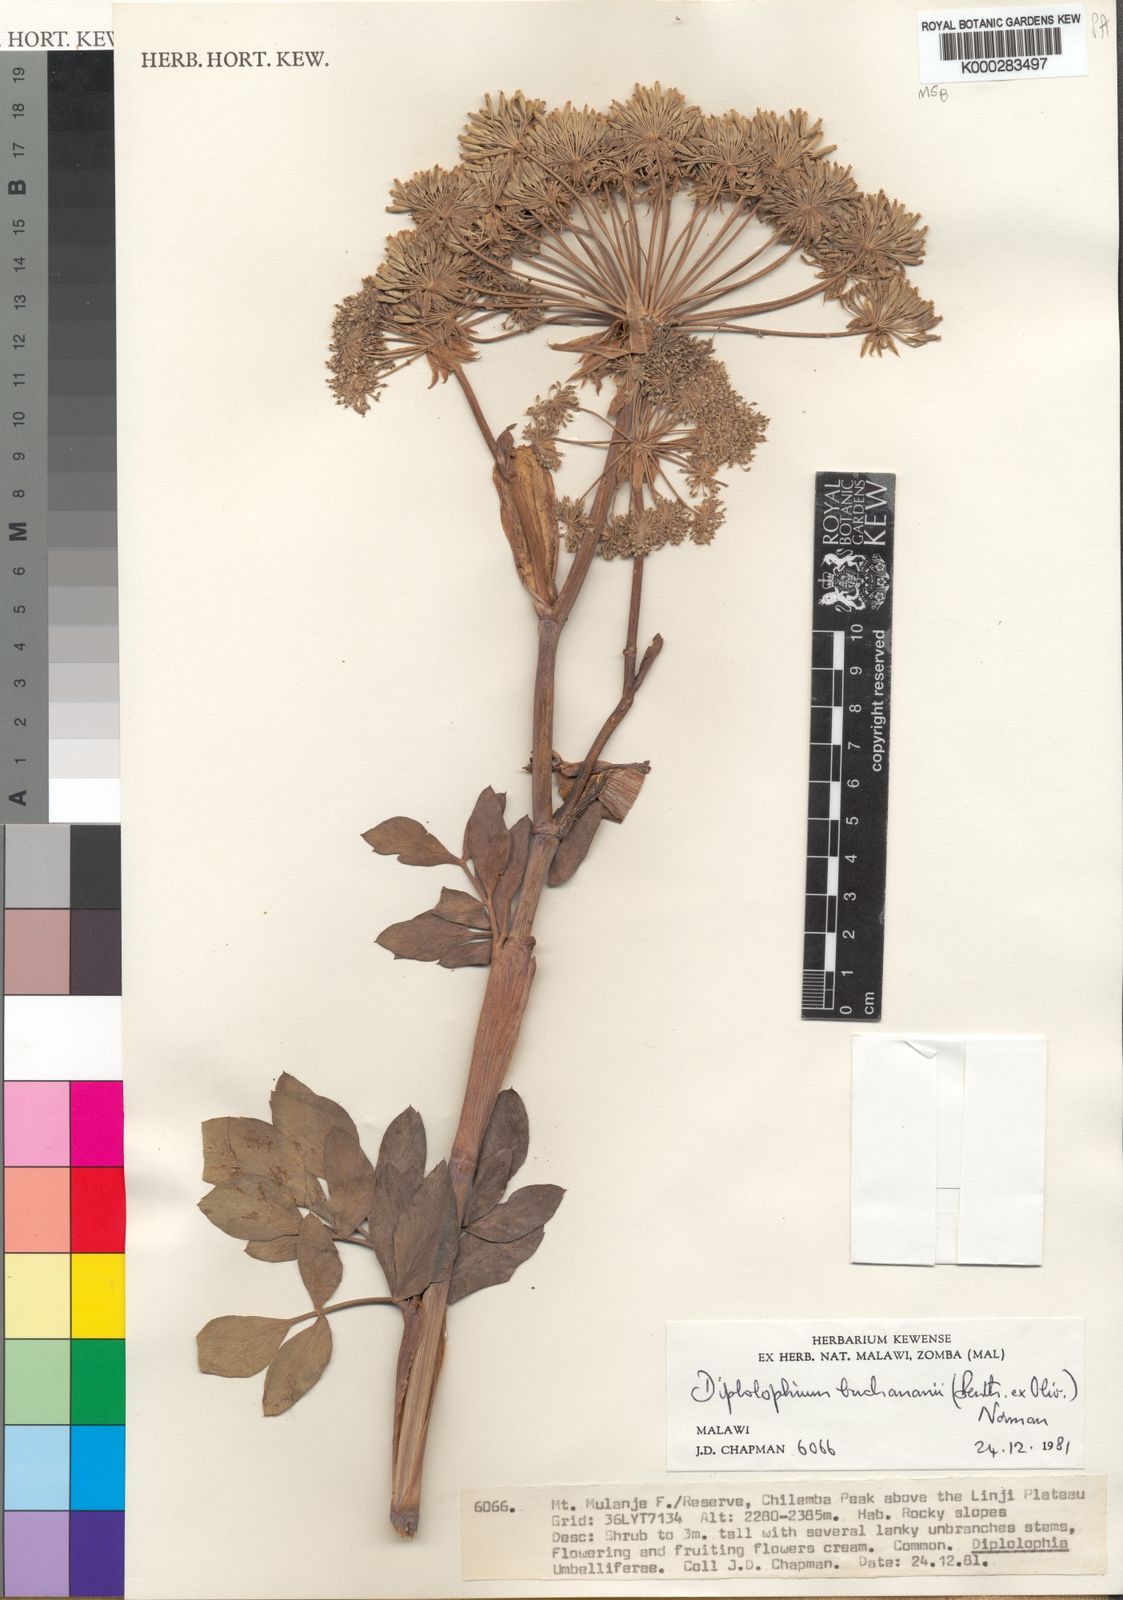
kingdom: Plantae
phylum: Tracheophyta
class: Magnoliopsida
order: Apiales
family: Apiaceae
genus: Diplolophium
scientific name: Diplolophium buchananii
